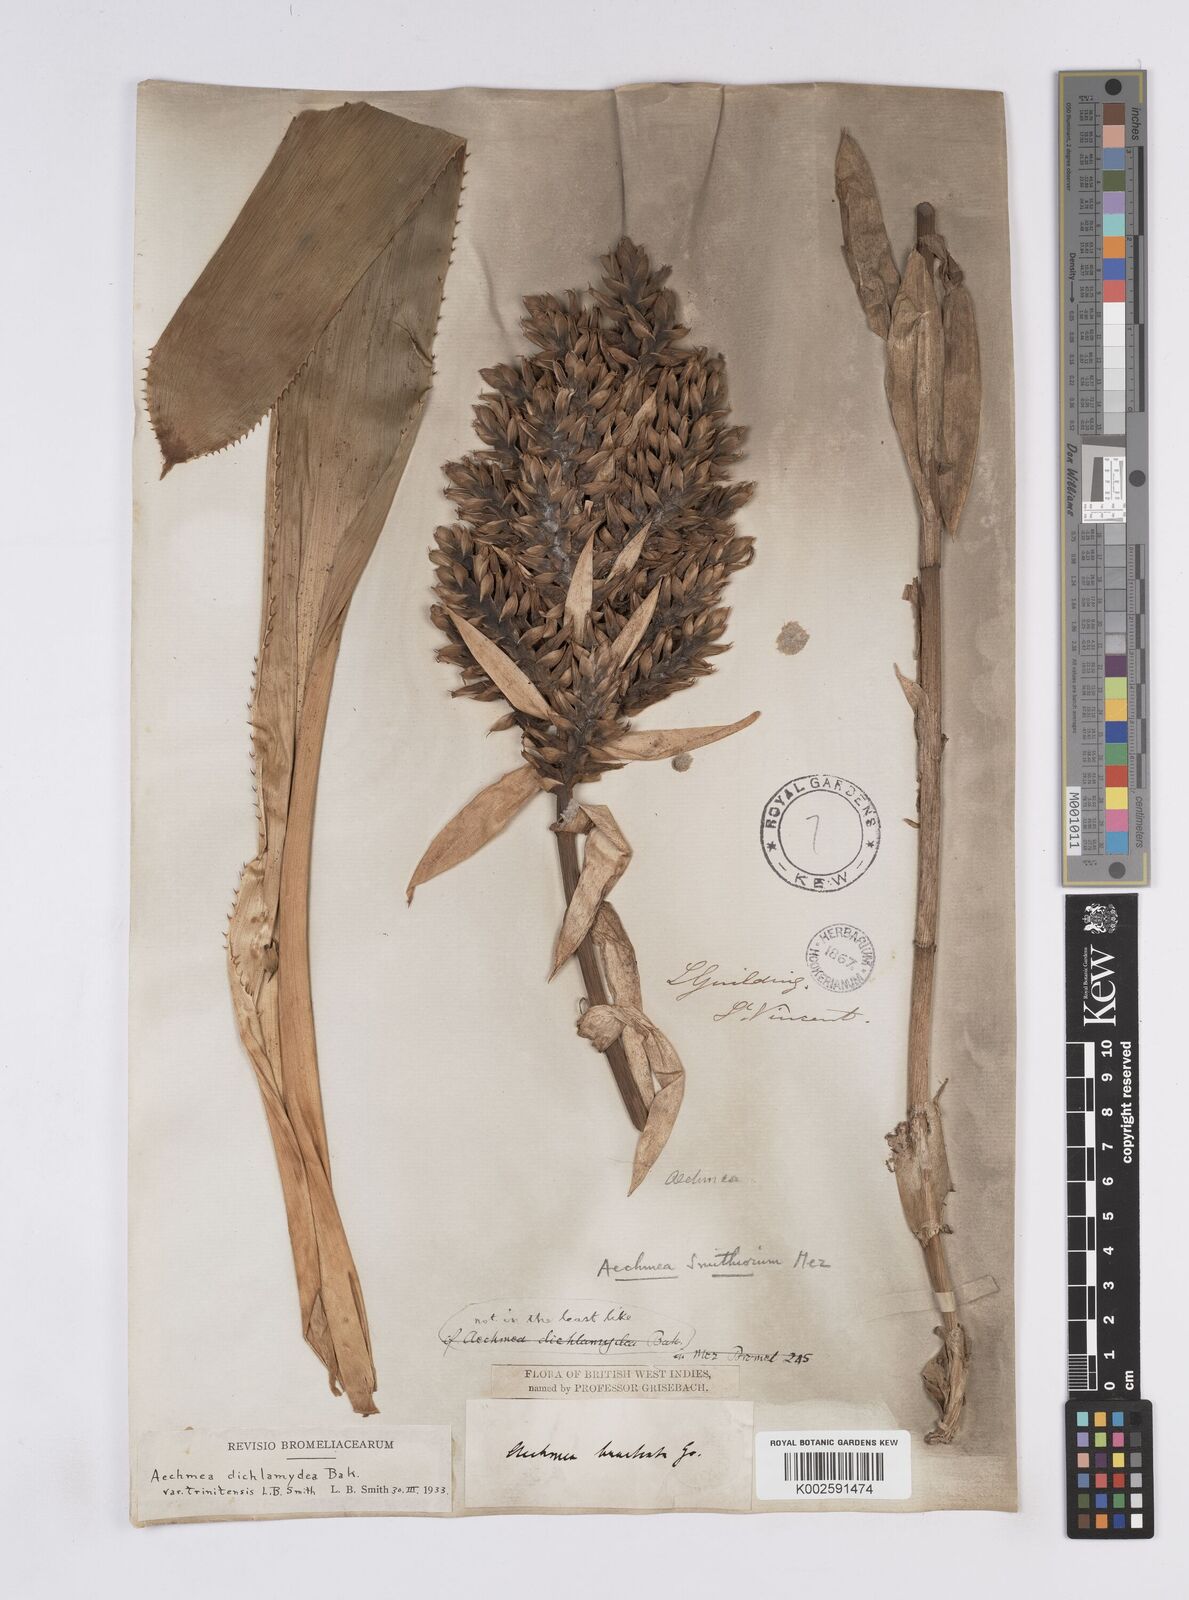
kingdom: Plantae
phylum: Tracheophyta
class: Liliopsida
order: Poales
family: Bromeliaceae
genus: Aechmea
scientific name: Aechmea dichlamydea
